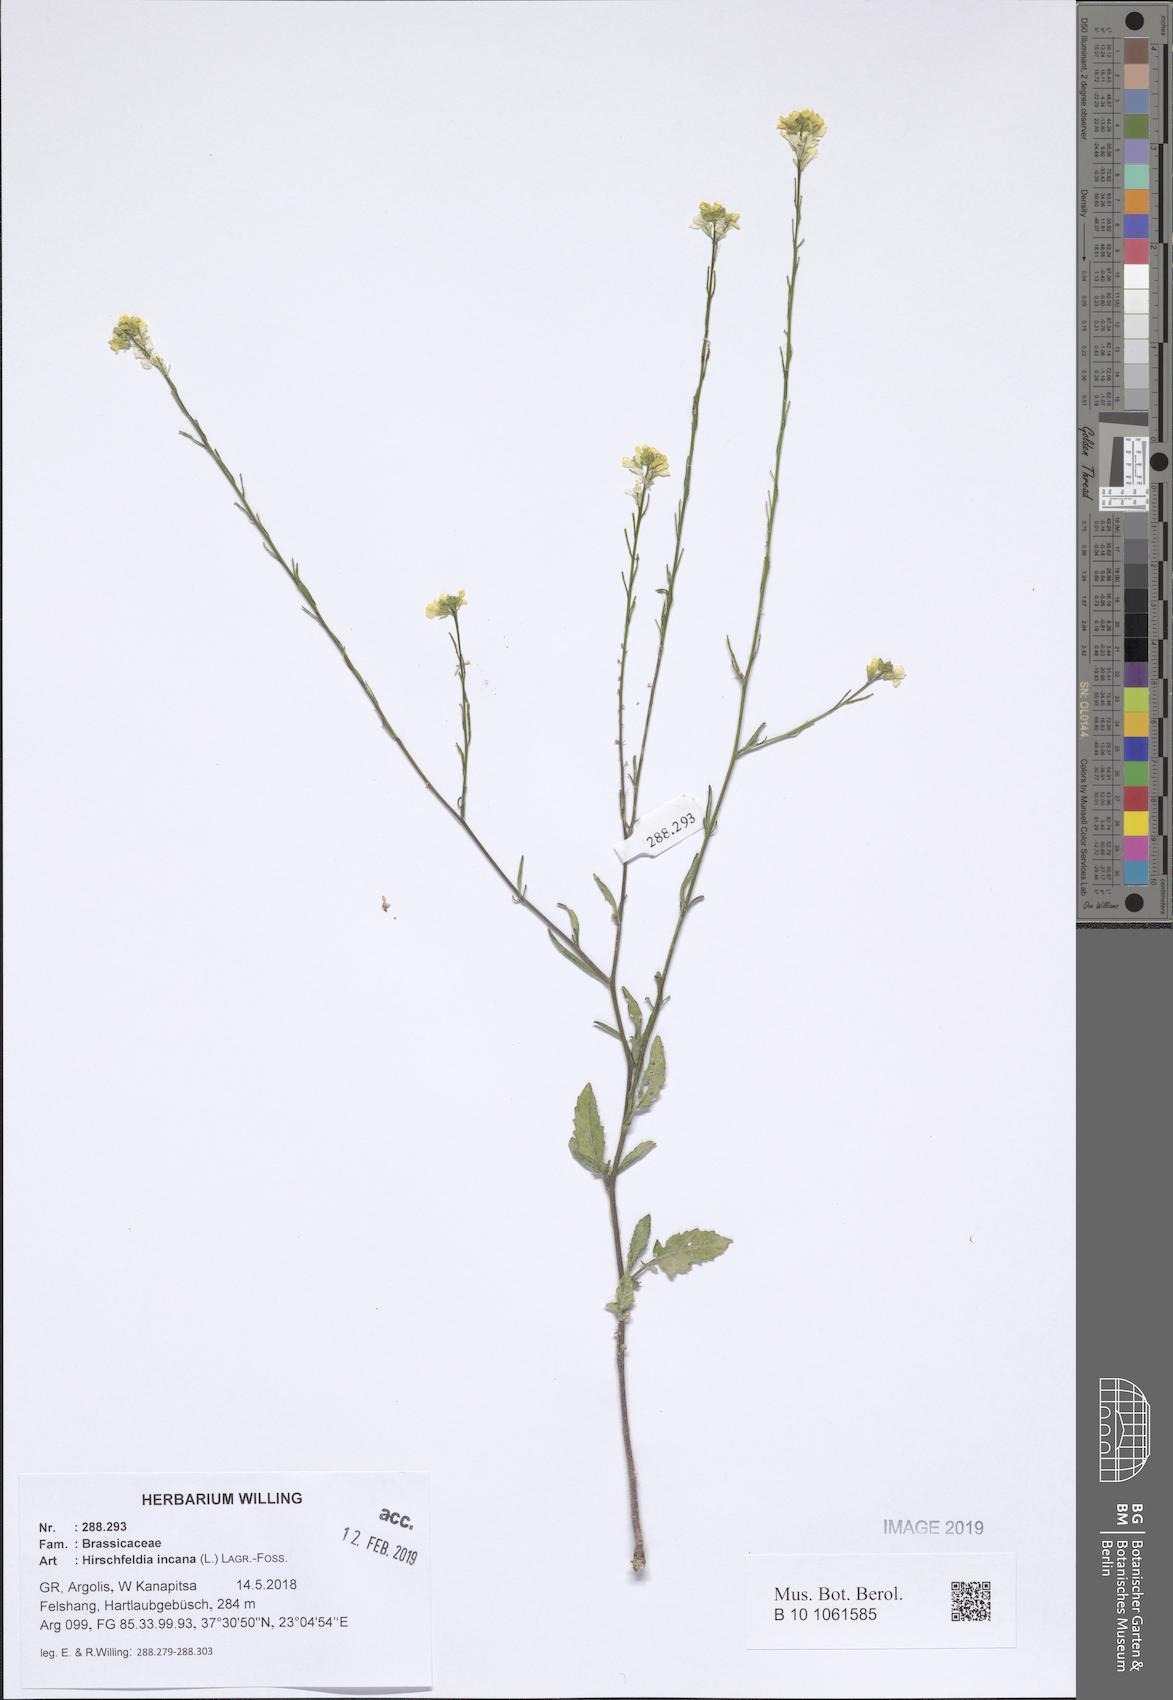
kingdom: Plantae
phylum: Tracheophyta
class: Magnoliopsida
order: Brassicales
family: Brassicaceae
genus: Hirschfeldia
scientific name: Hirschfeldia incana
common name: Hoary mustard
